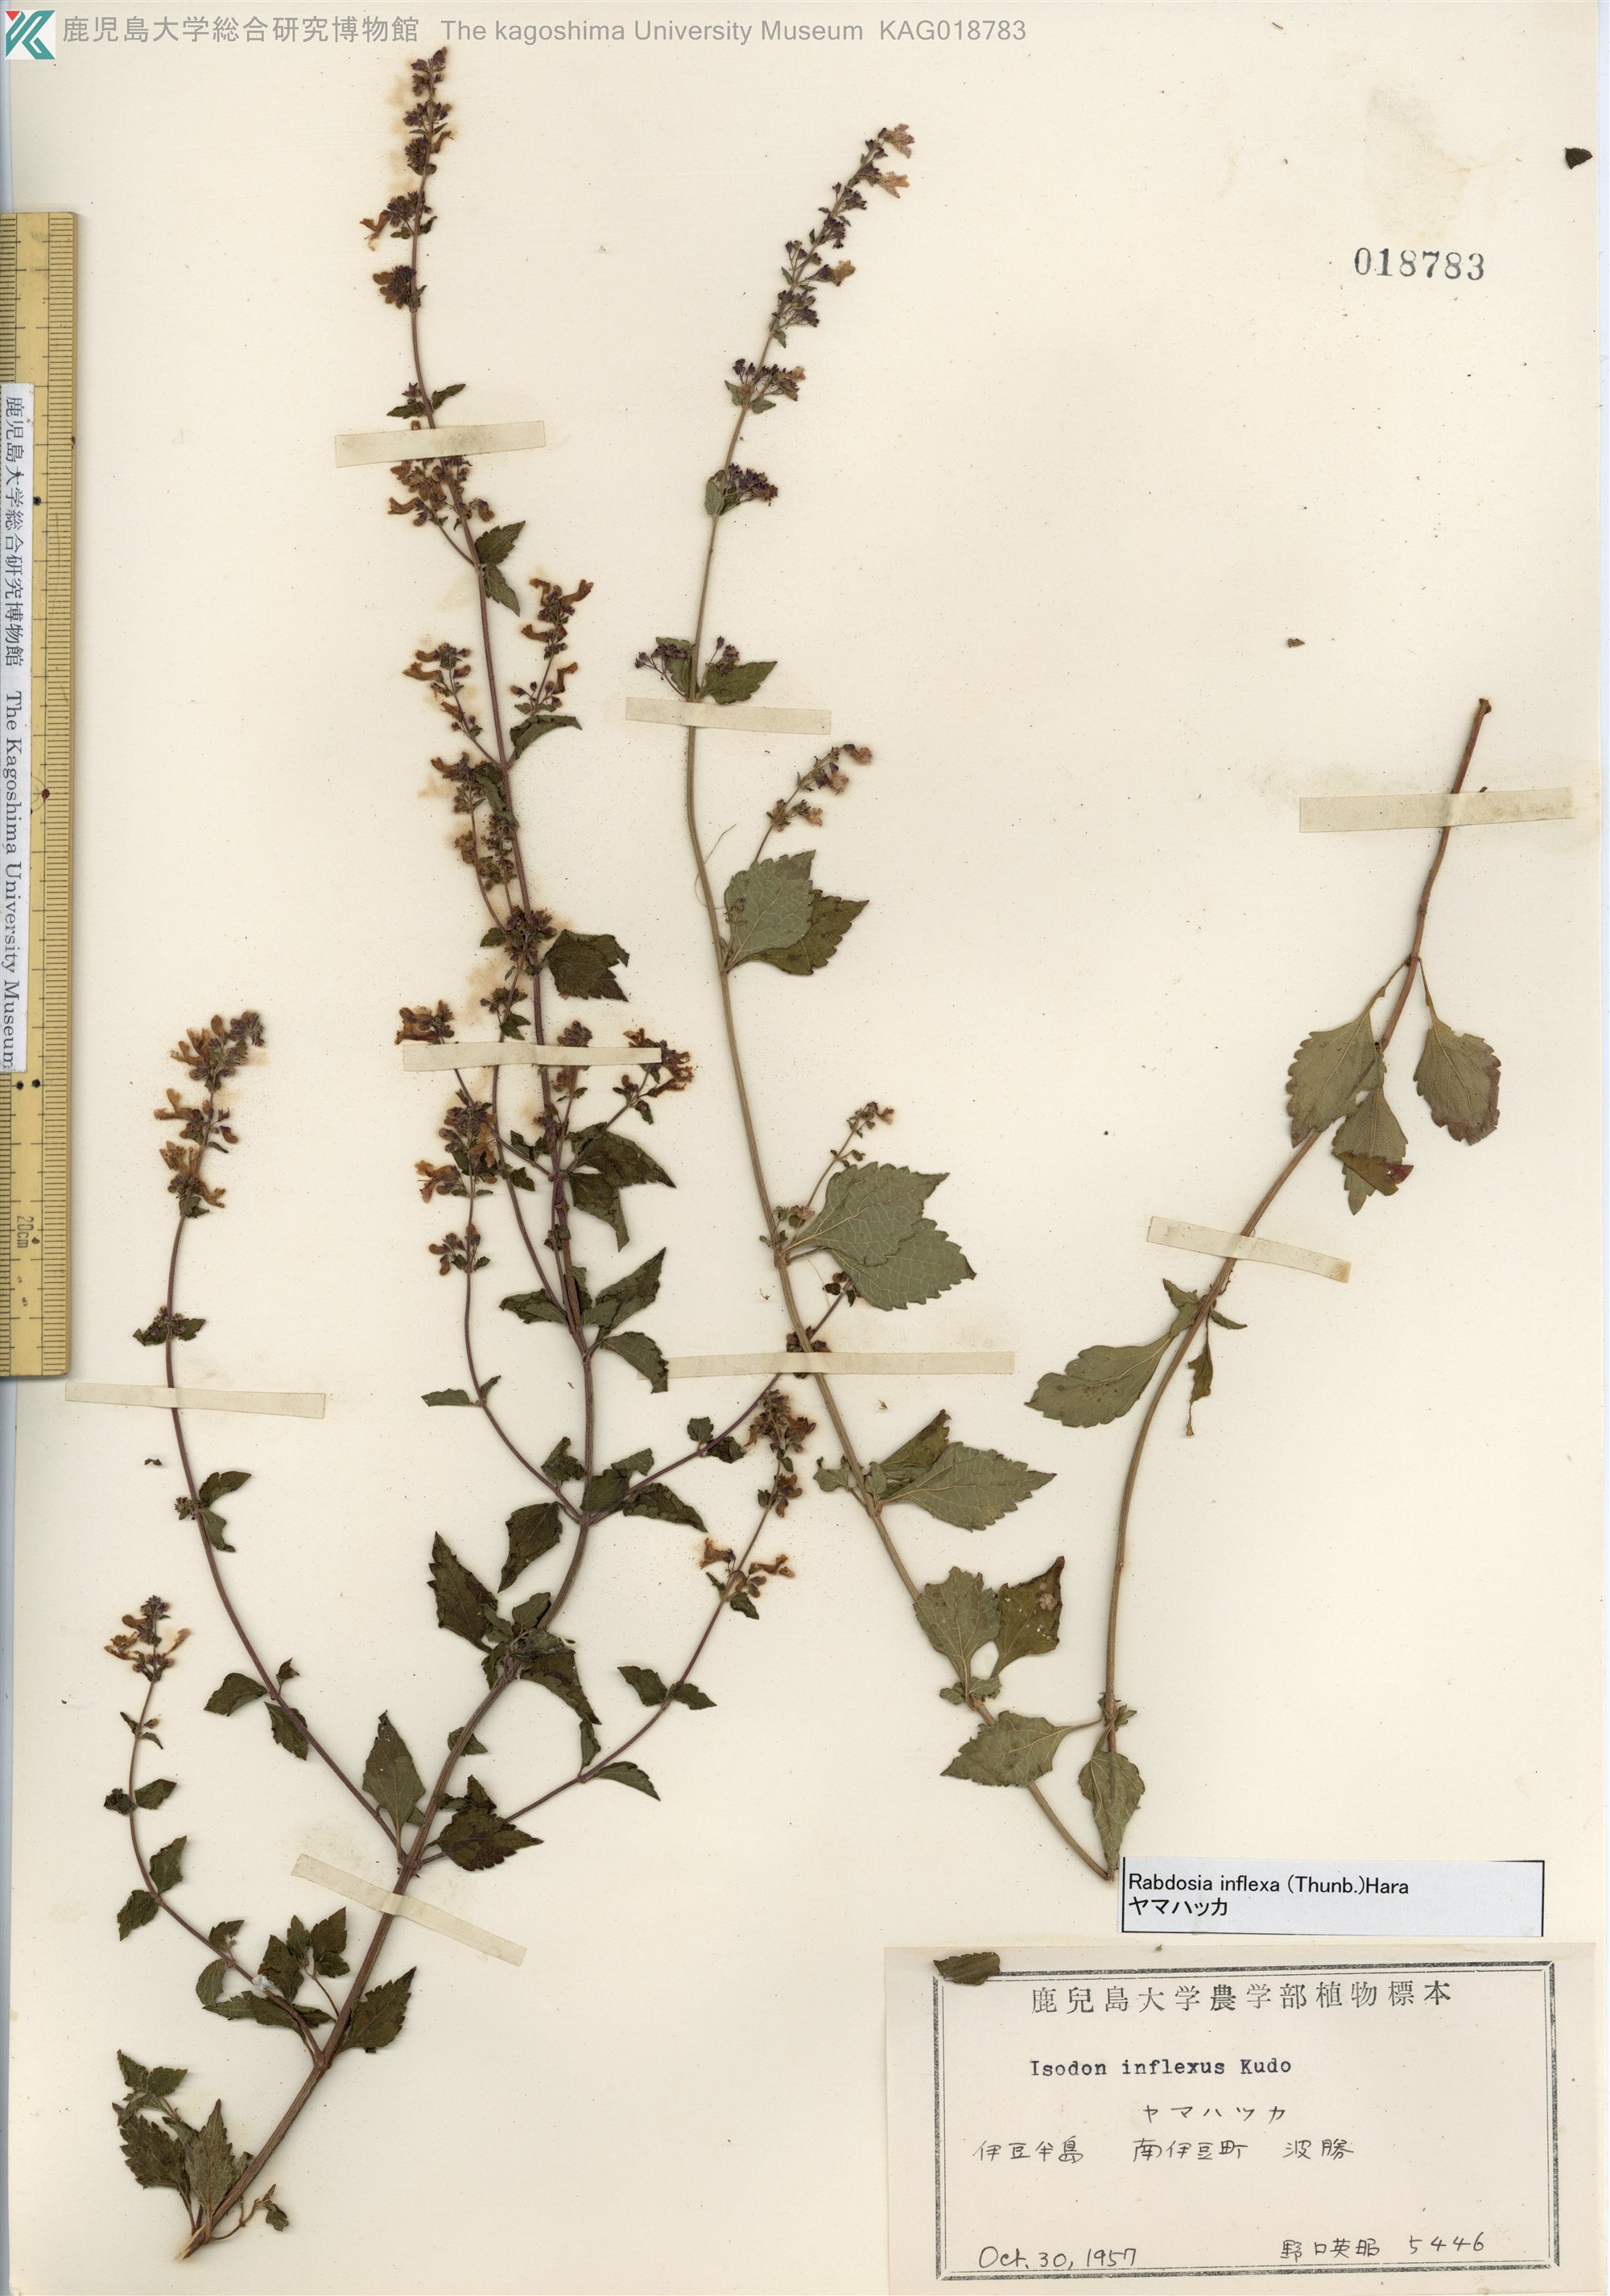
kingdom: Plantae
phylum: Tracheophyta
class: Magnoliopsida
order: Lamiales
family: Lamiaceae
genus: Isodon
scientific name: Isodon inflexus
